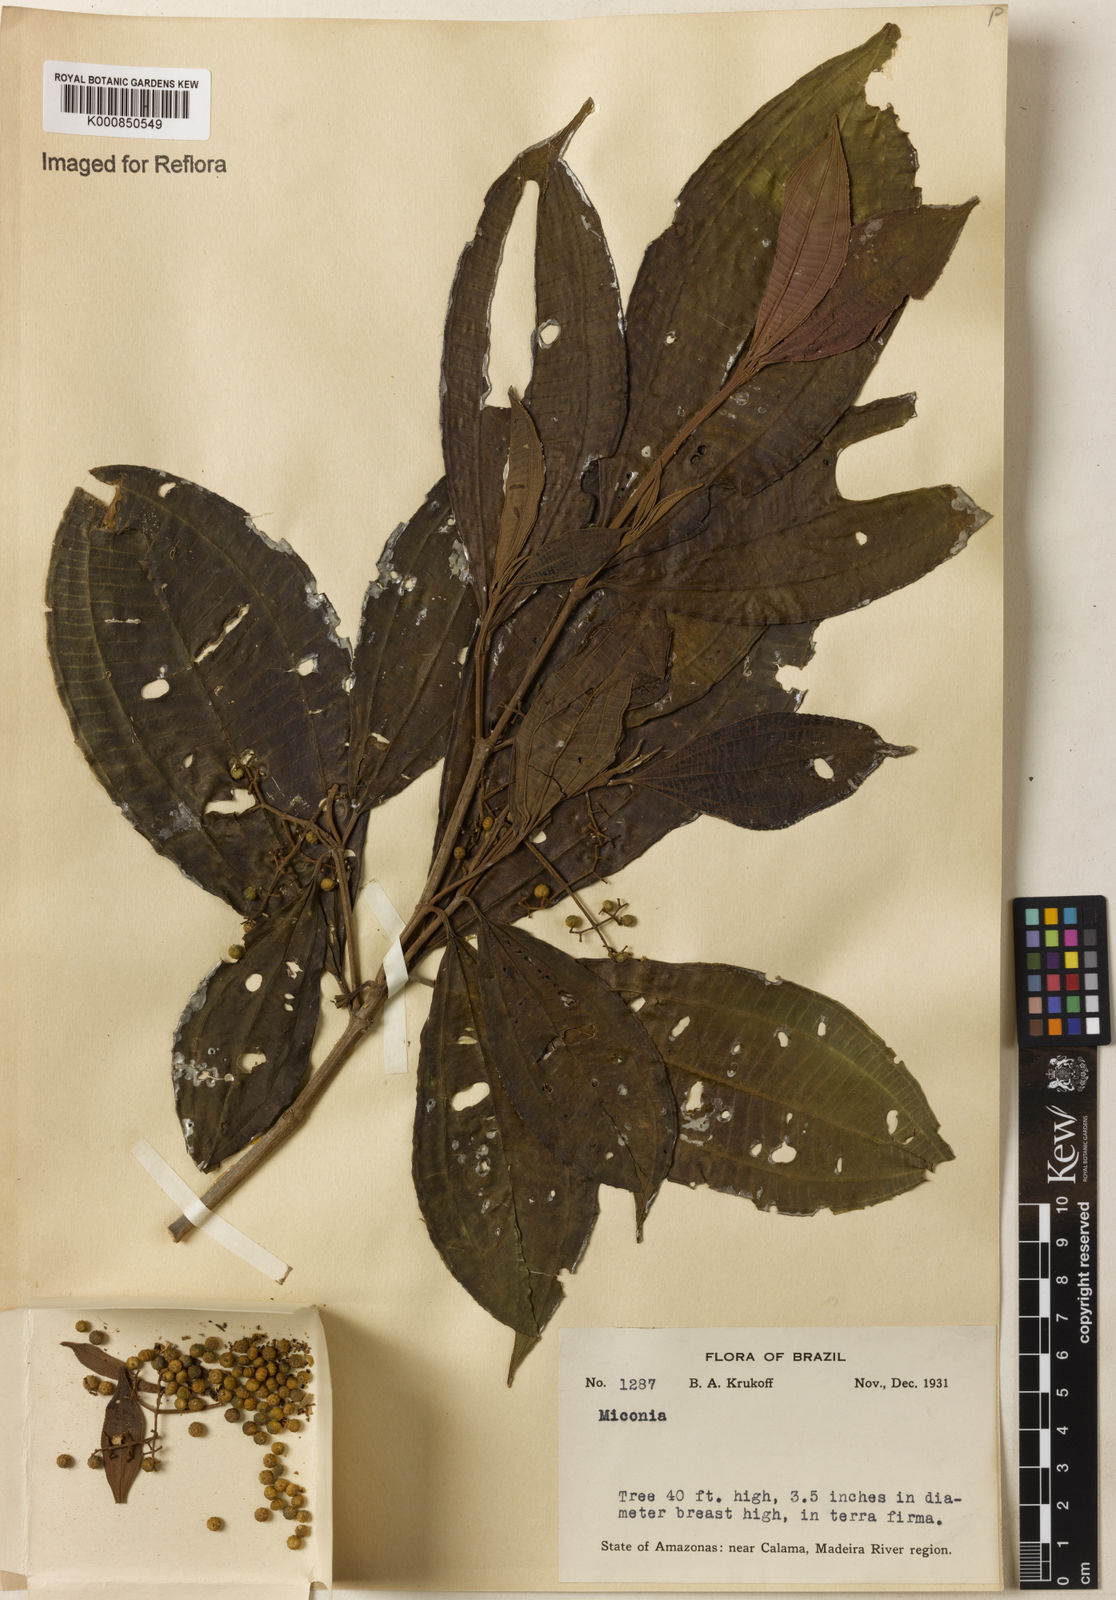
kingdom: Plantae
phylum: Tracheophyta
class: Magnoliopsida
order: Myrtales
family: Melastomataceae
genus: Miconia
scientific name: Miconia
